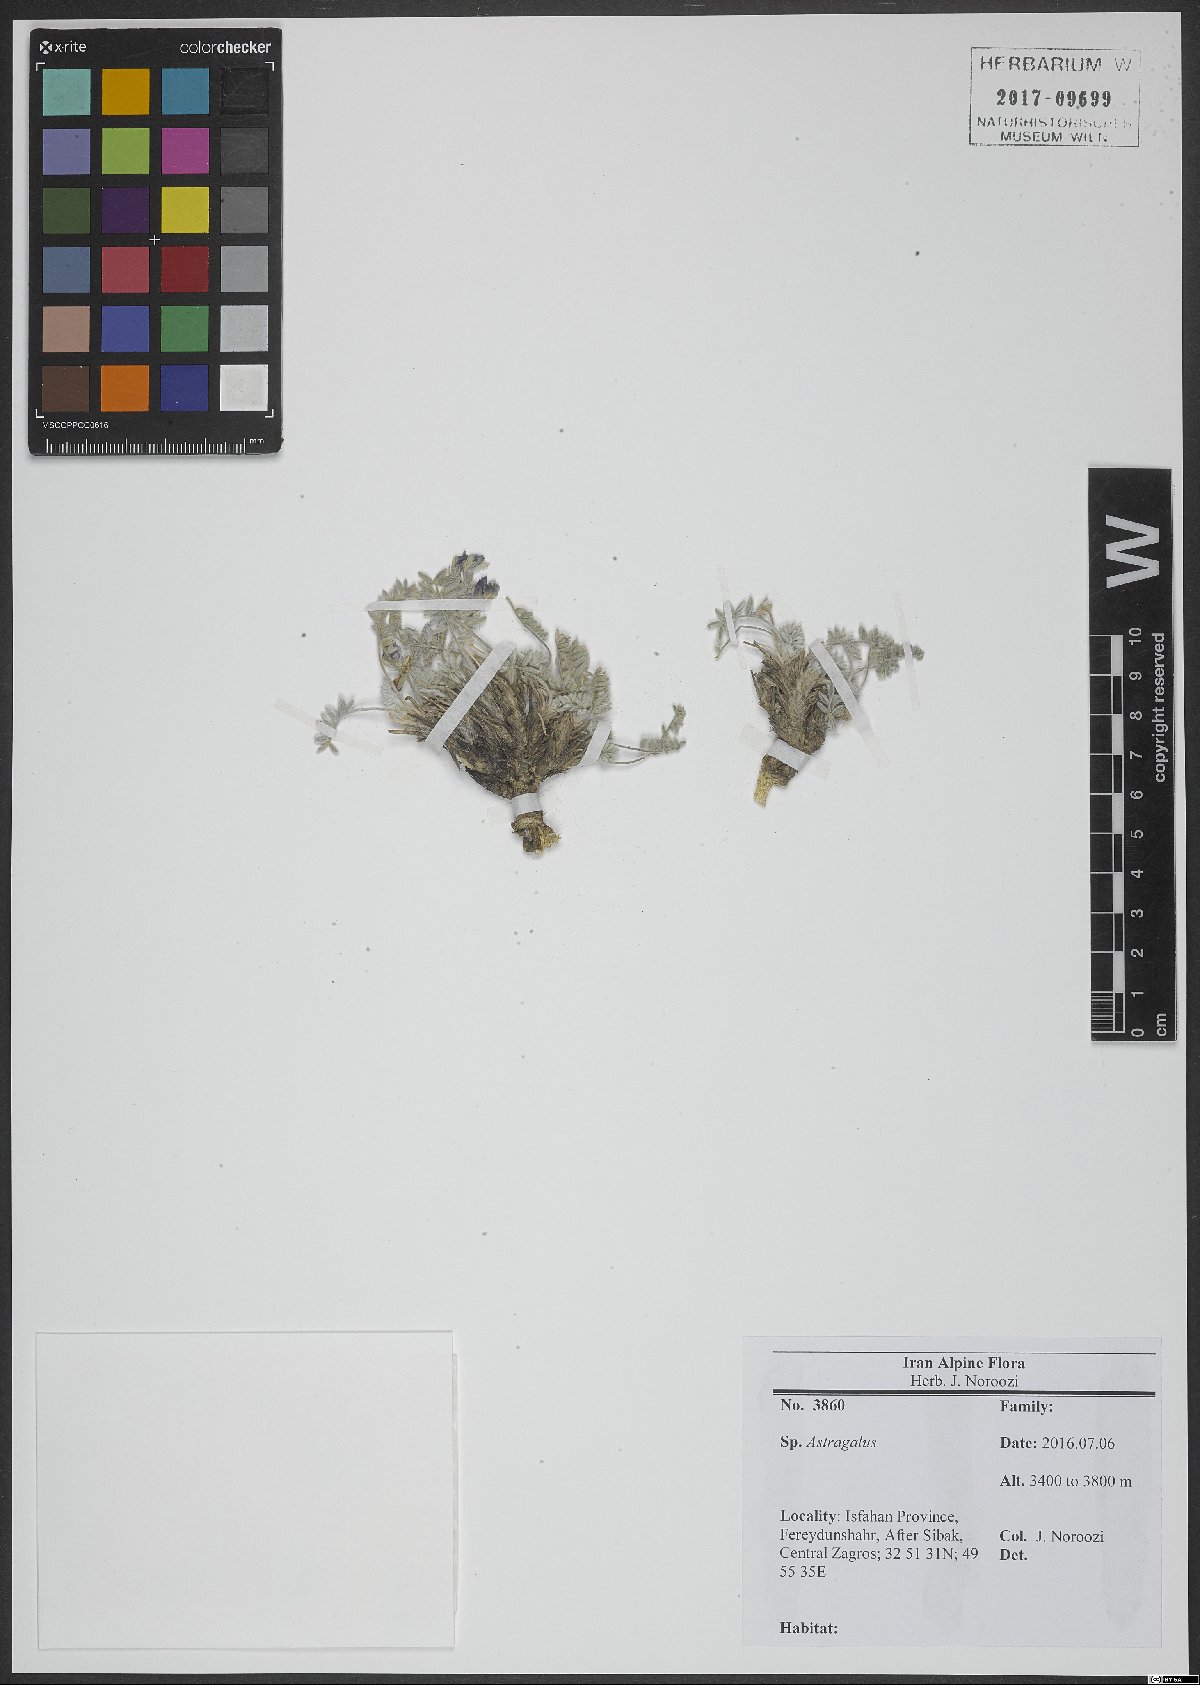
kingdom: Plantae
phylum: Tracheophyta
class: Magnoliopsida
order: Fabales
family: Fabaceae
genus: Astragalus
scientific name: Astragalus
